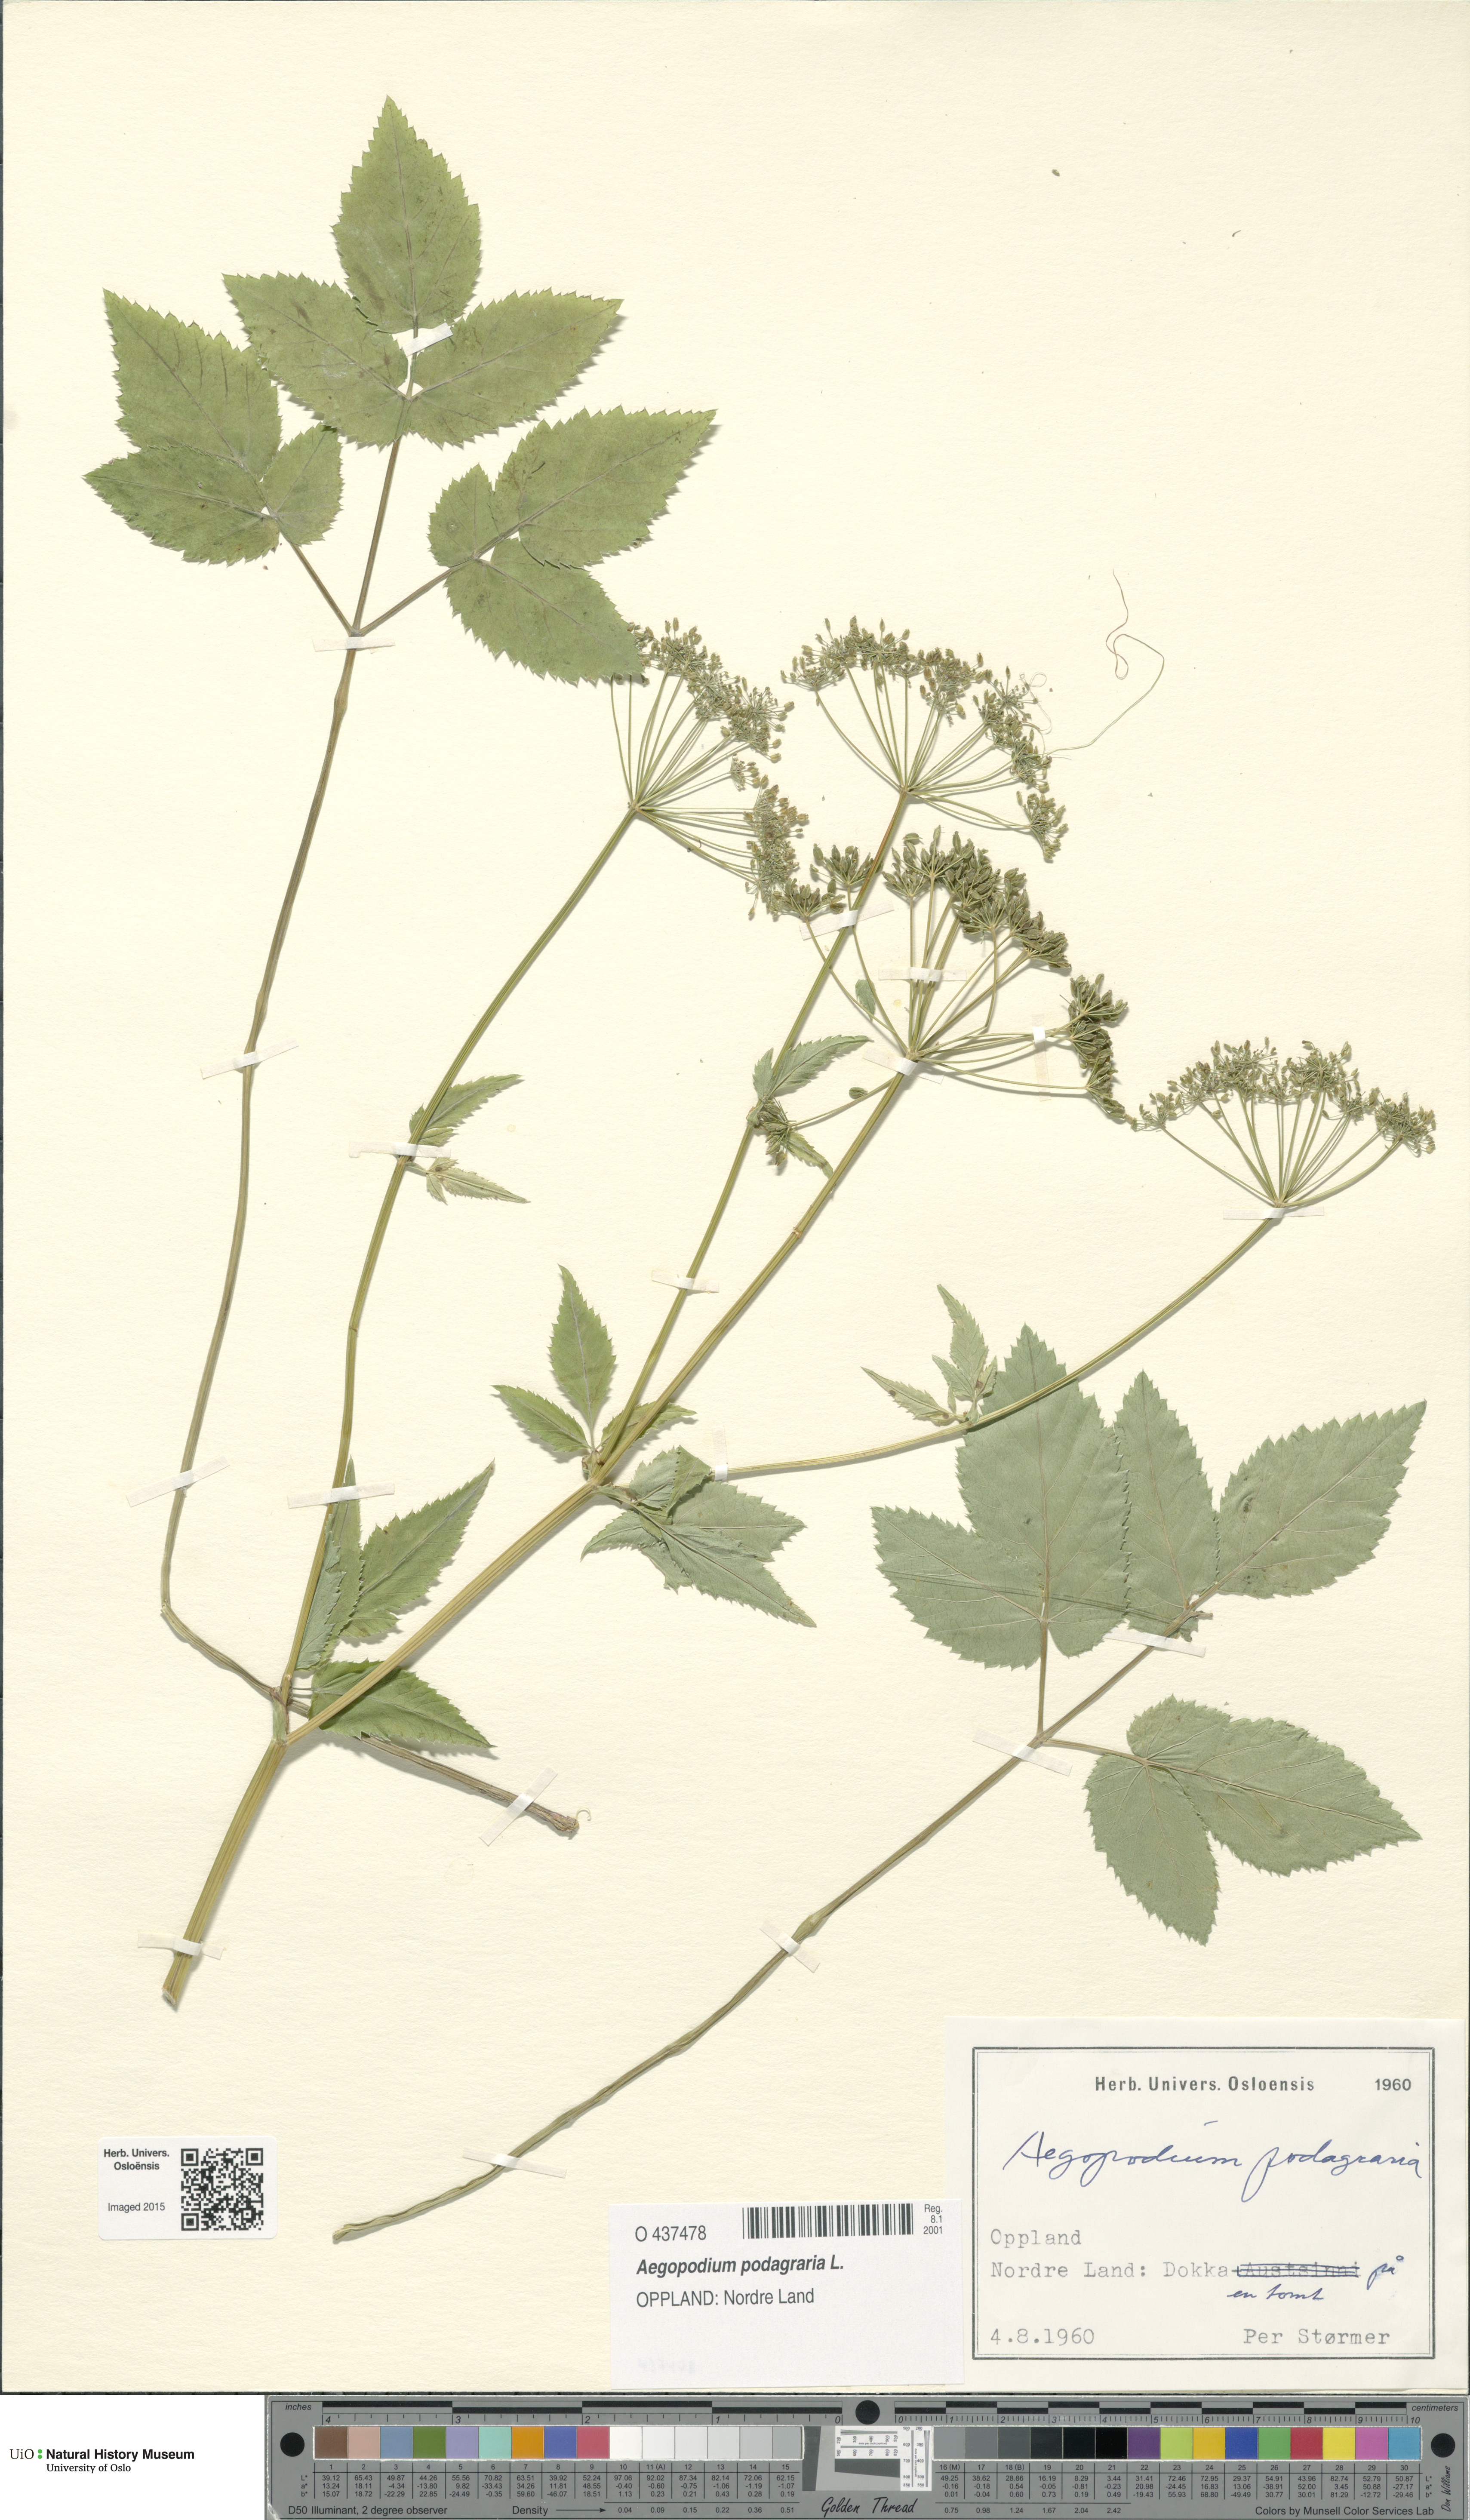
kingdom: Plantae
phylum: Tracheophyta
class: Magnoliopsida
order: Apiales
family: Apiaceae
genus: Aegopodium
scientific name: Aegopodium podagraria
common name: Ground-elder
